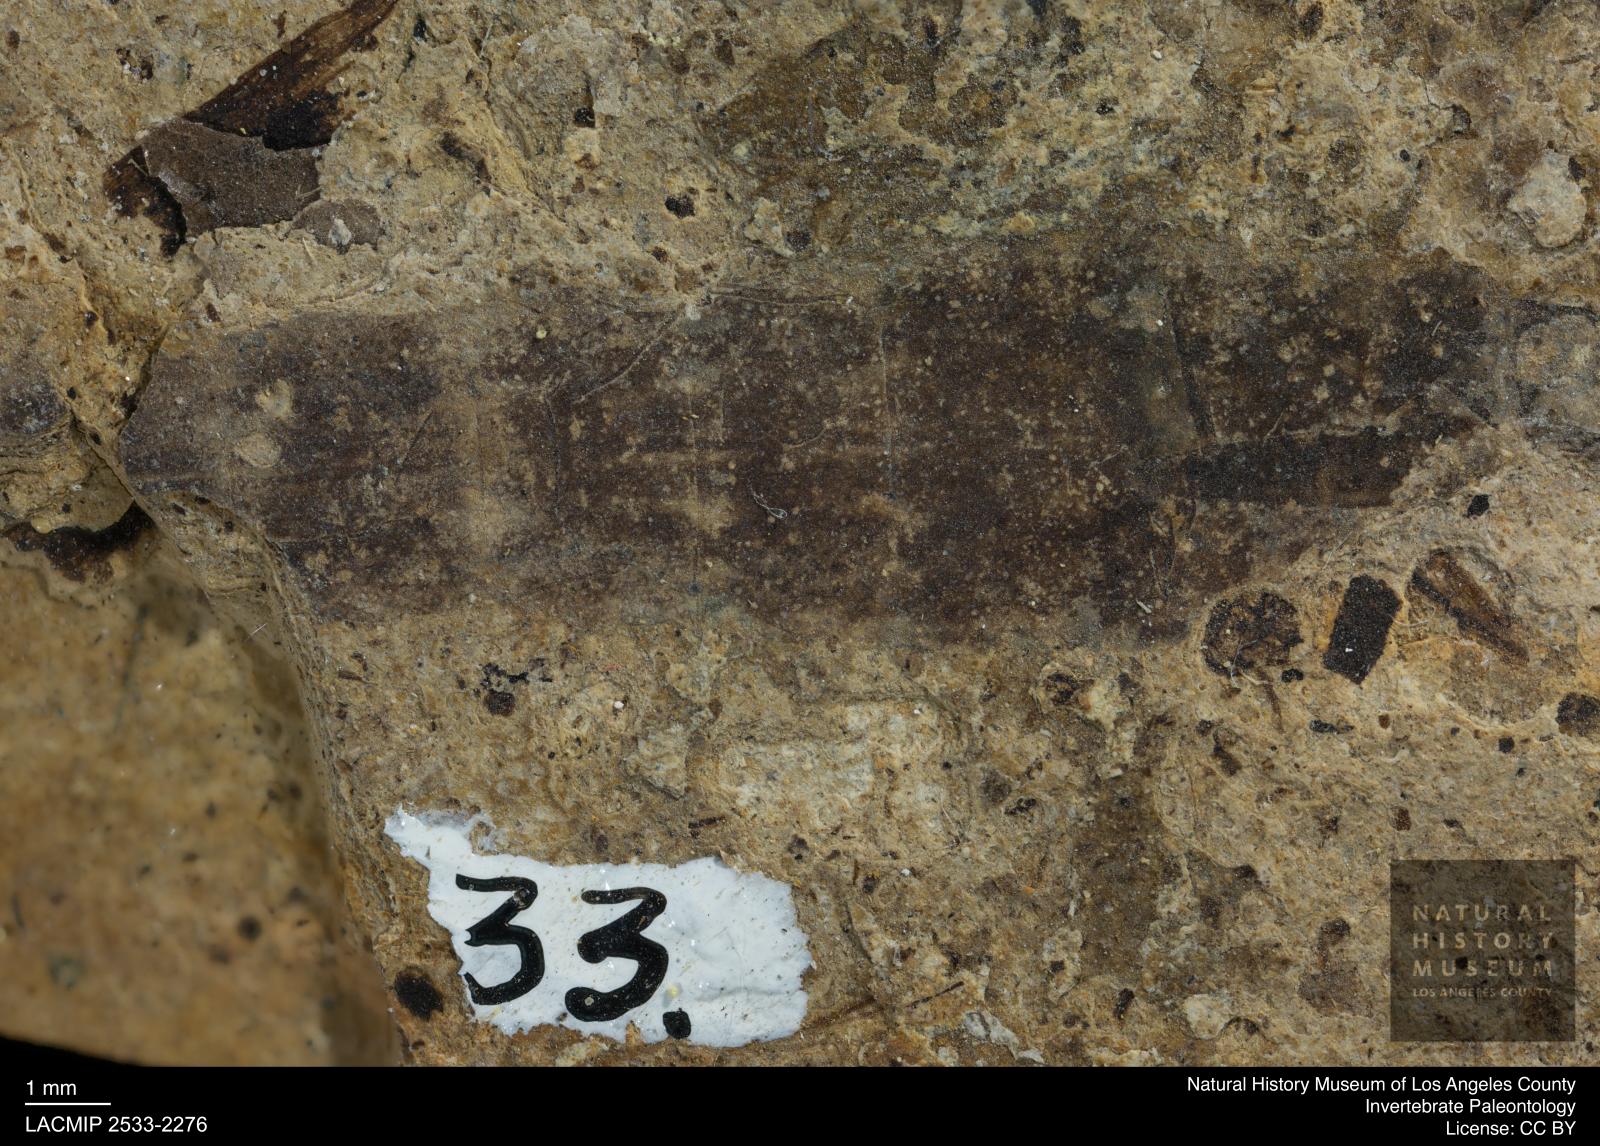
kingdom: Animalia
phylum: Arthropoda
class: Insecta
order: Diptera
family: Stratiomyidae
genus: Odontomyia
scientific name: Odontomyia
